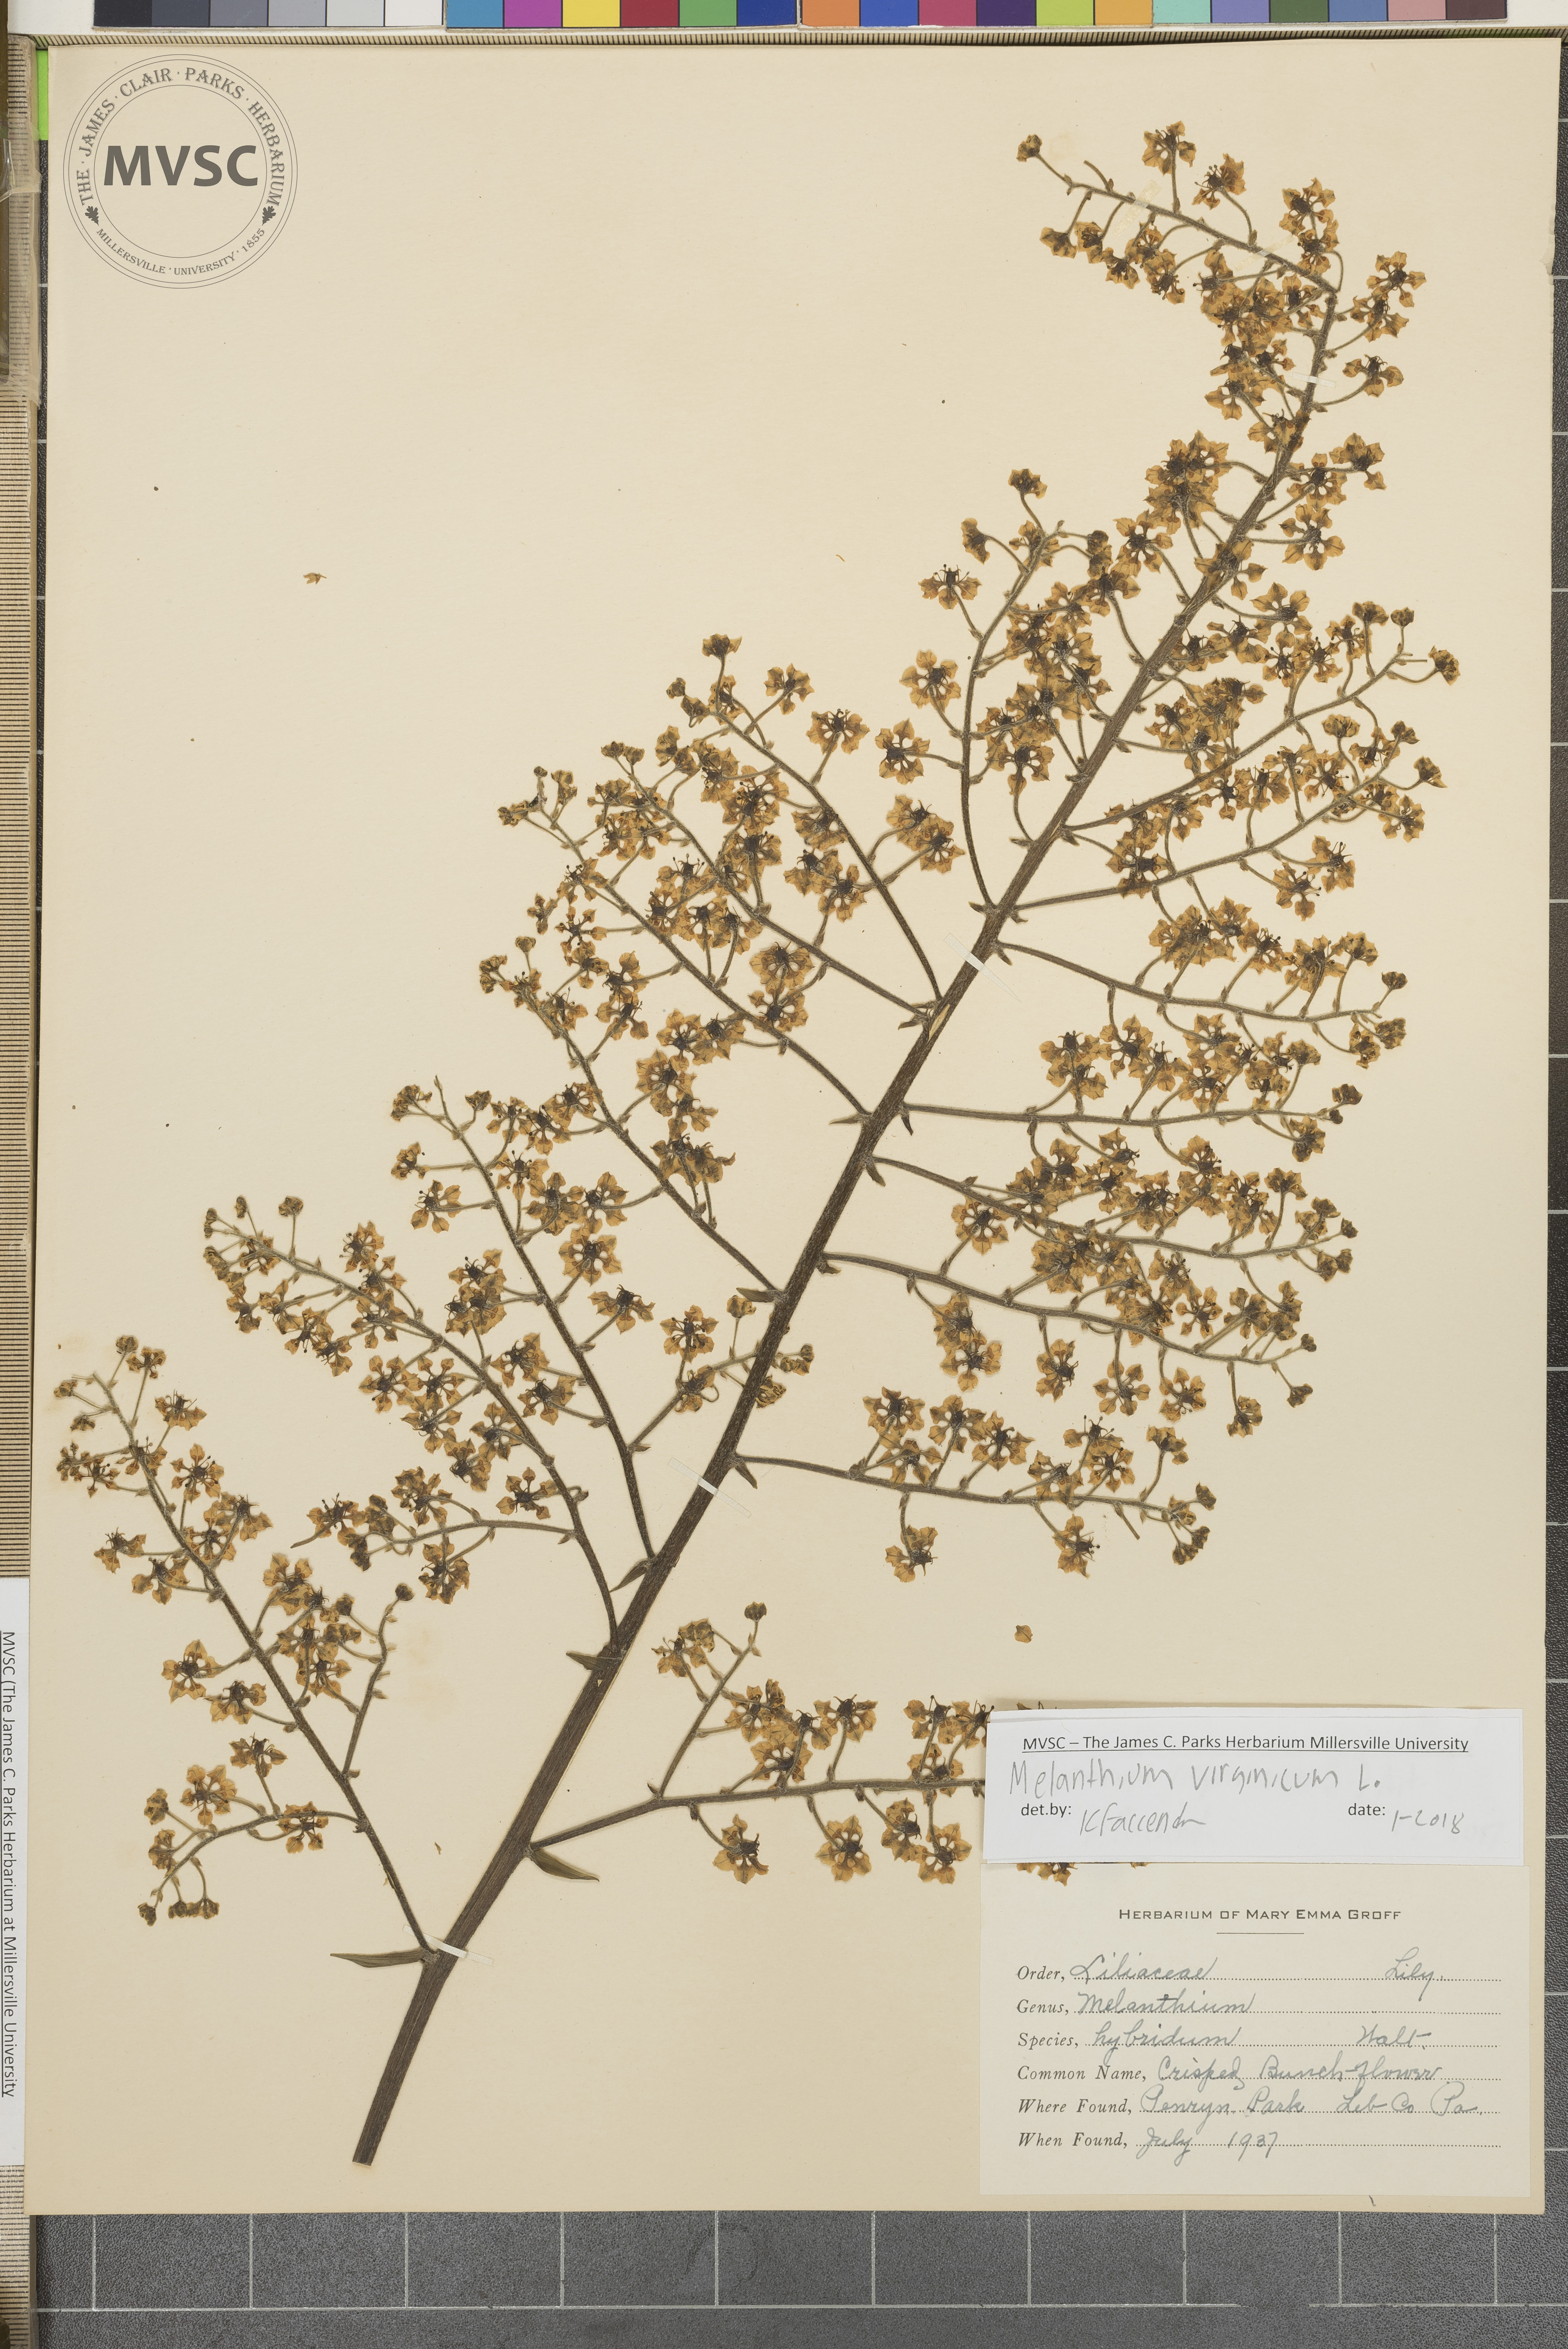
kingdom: Plantae
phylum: Tracheophyta
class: Liliopsida
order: Liliales
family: Melanthiaceae
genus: Melanthium
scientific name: Melanthium hybridum
